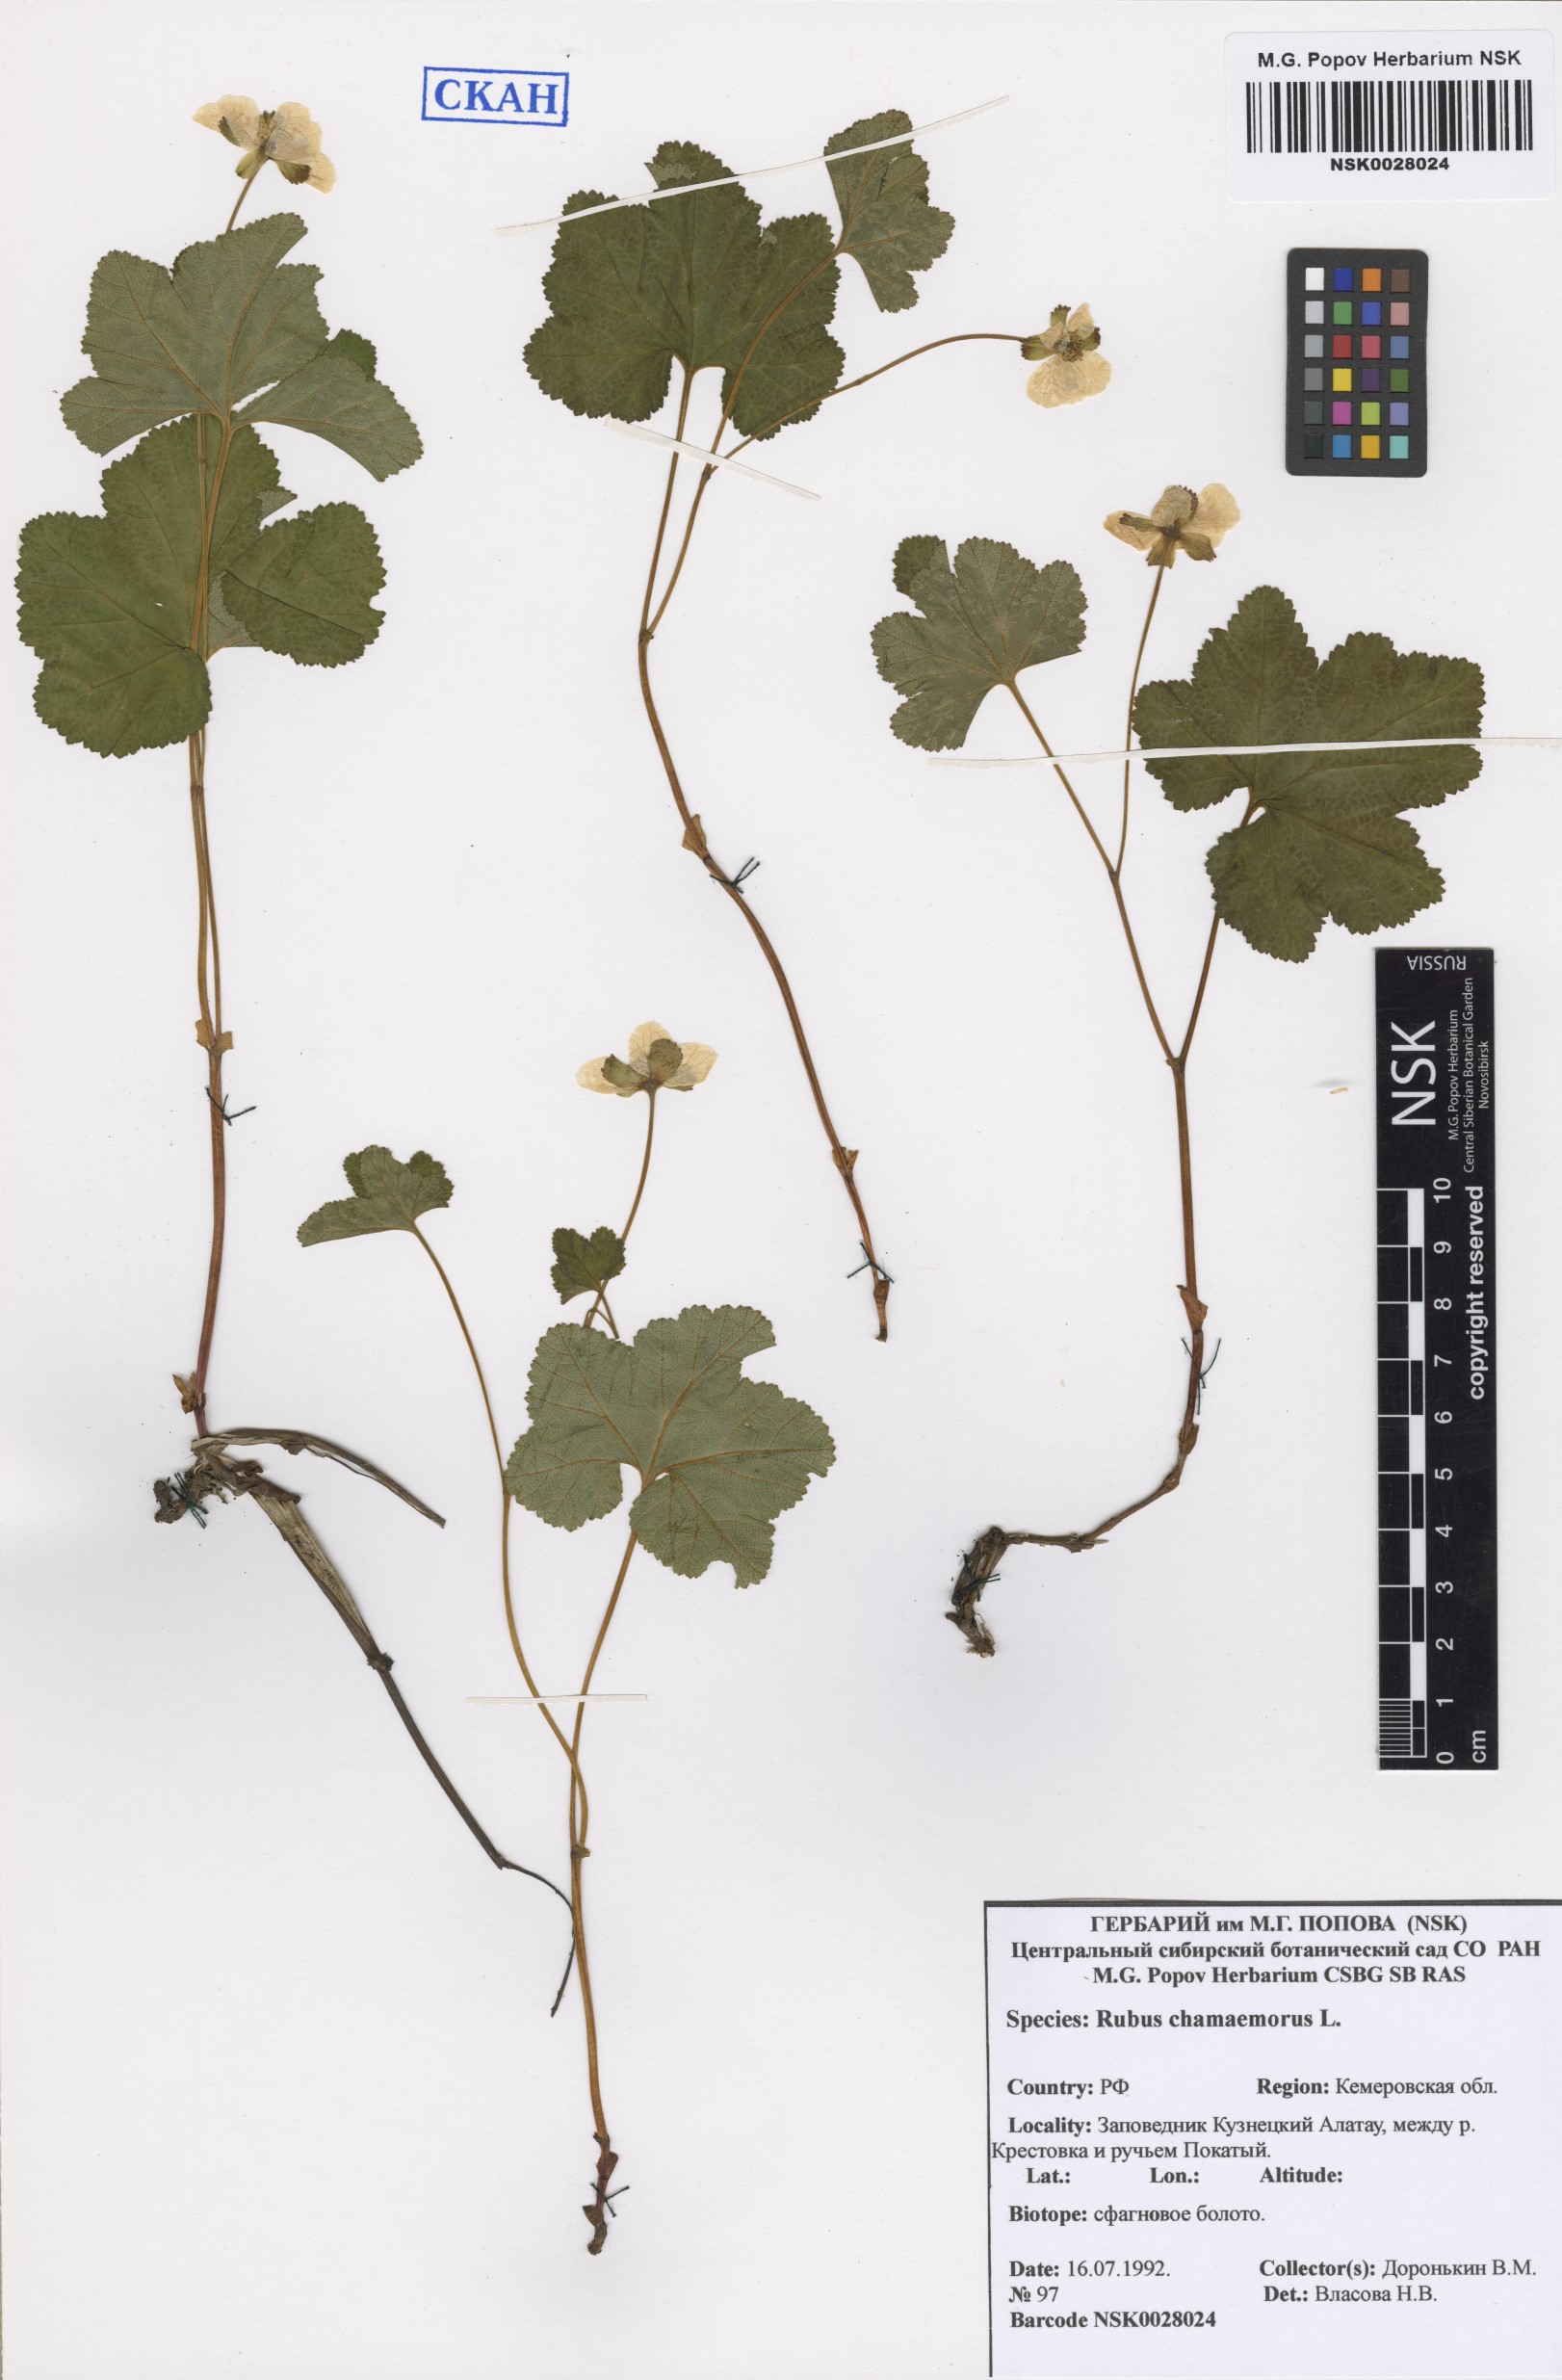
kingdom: Plantae
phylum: Tracheophyta
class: Magnoliopsida
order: Rosales
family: Rosaceae
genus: Rubus
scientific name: Rubus chamaemorus
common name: Cloudberry
